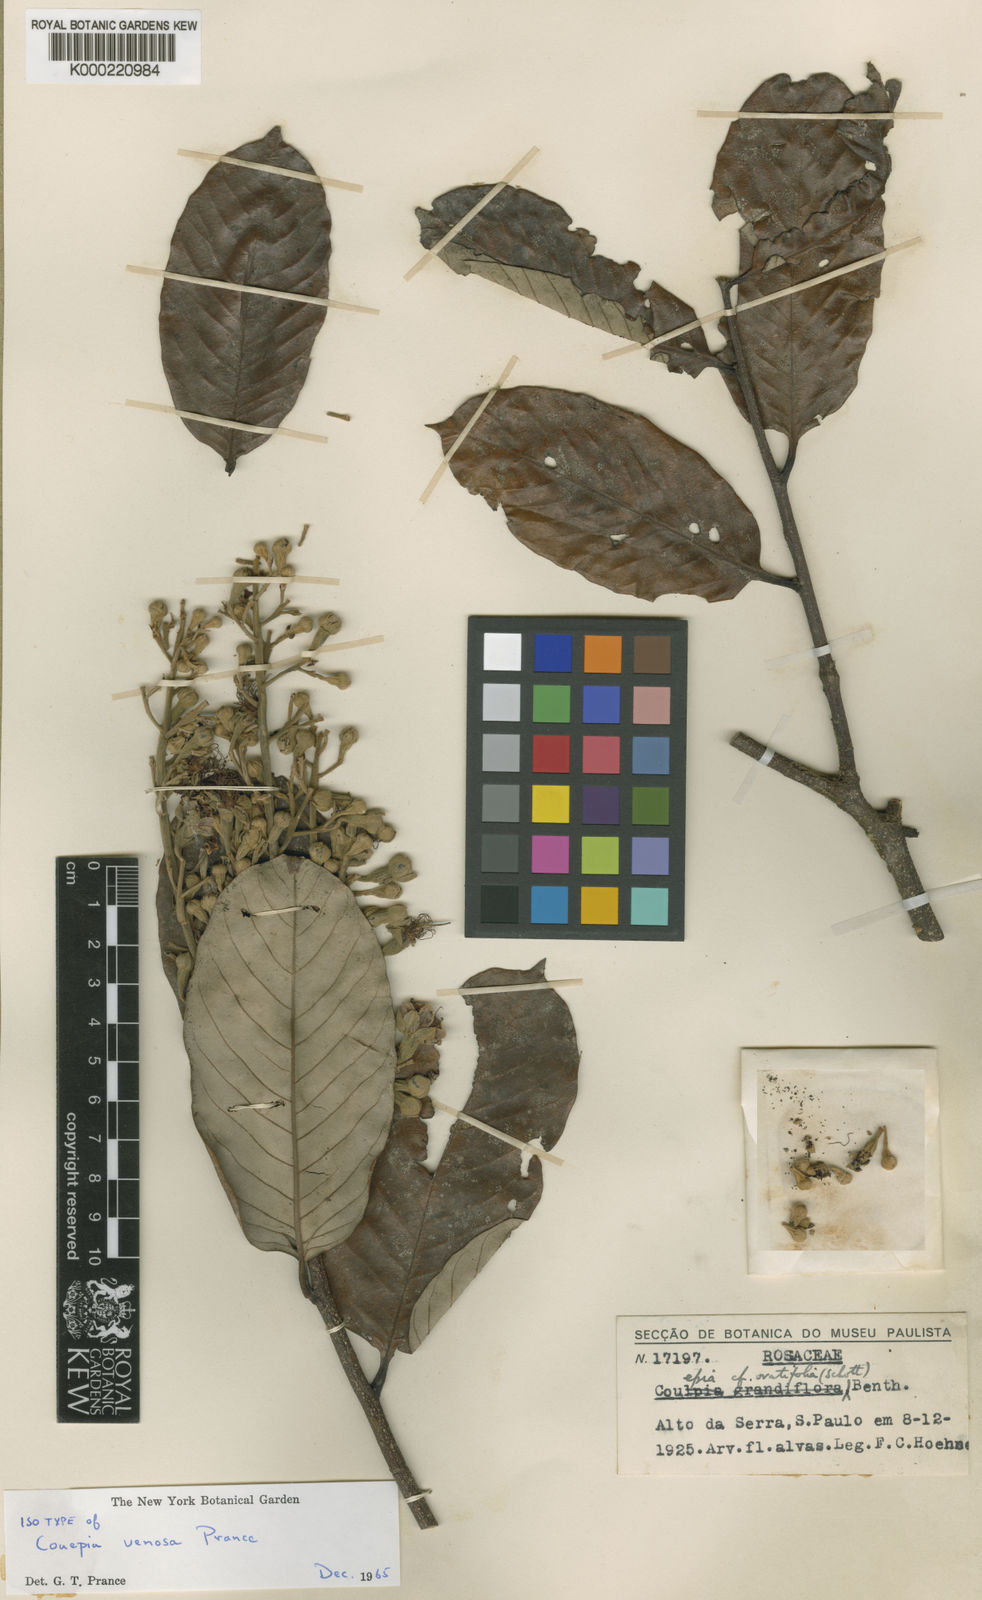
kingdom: Plantae
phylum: Tracheophyta
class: Magnoliopsida
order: Malpighiales
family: Chrysobalanaceae
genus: Couepia
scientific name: Couepia venosa
